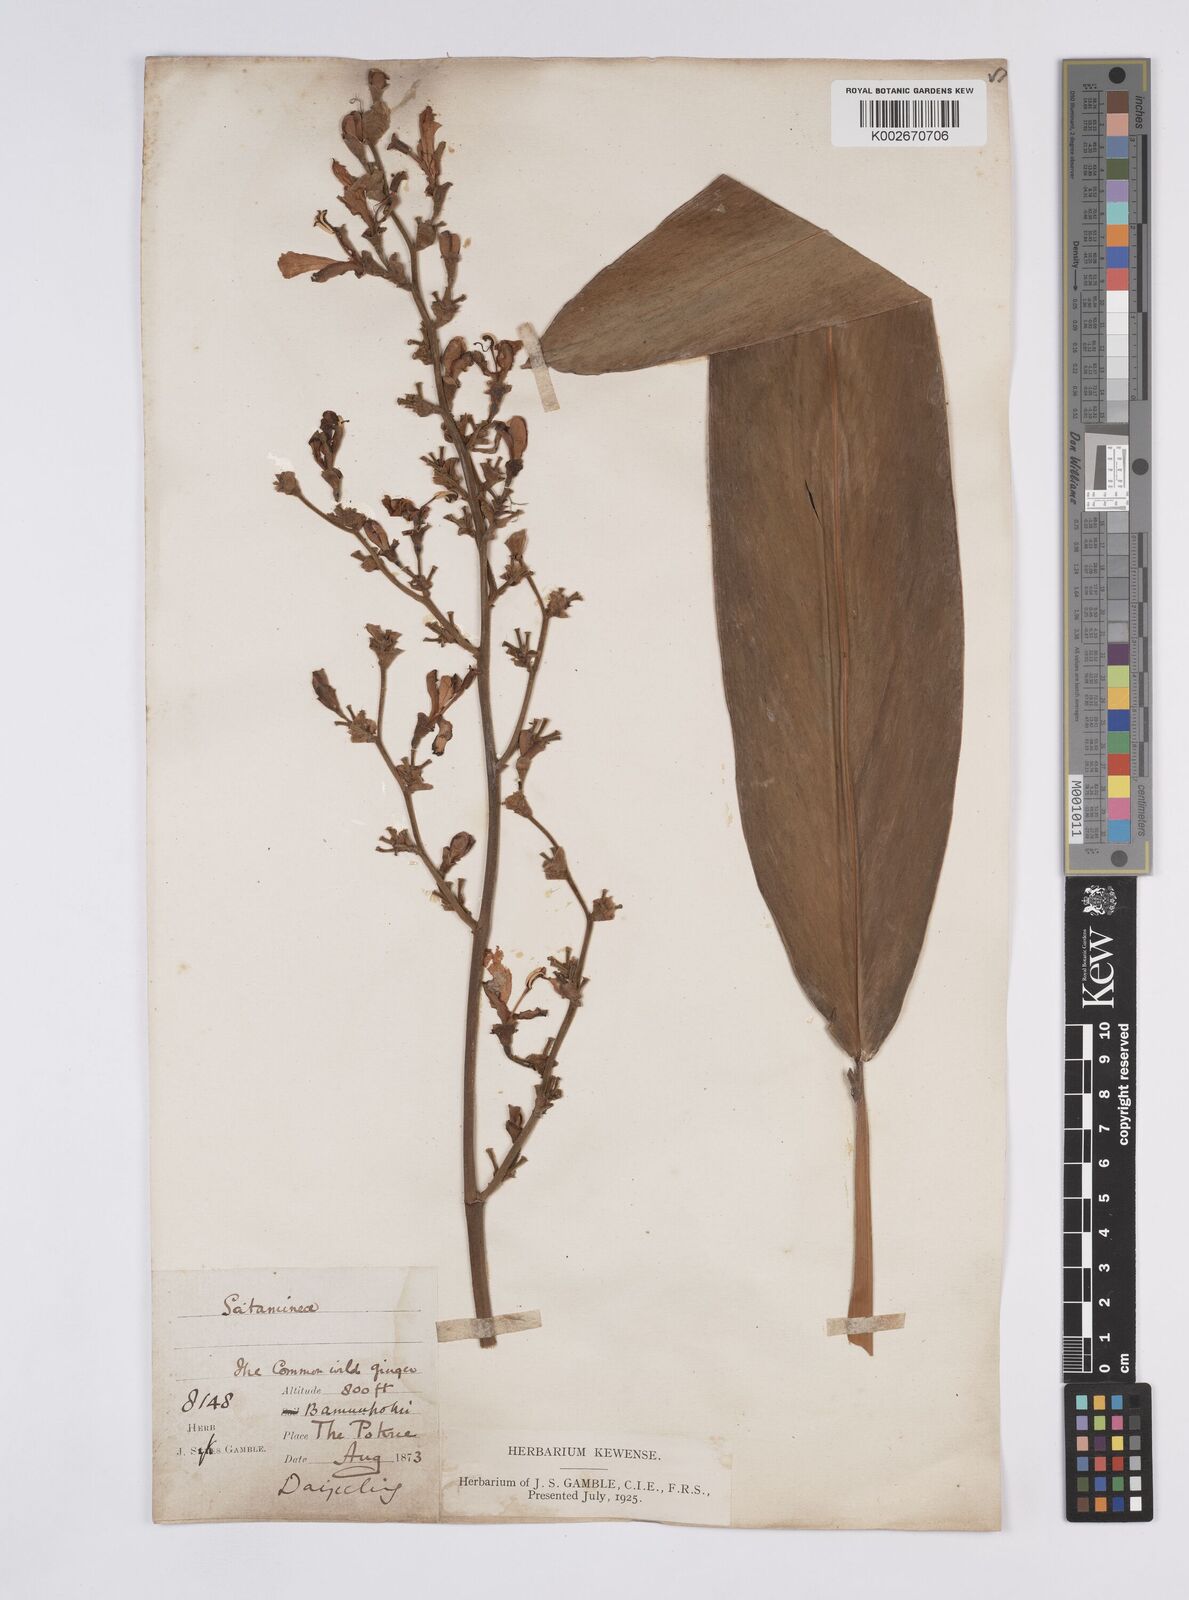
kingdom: Plantae
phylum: Tracheophyta
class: Liliopsida
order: Zingiberales
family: Zingiberaceae
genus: Alpinia
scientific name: Alpinia nigra
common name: Black fruited galanga
